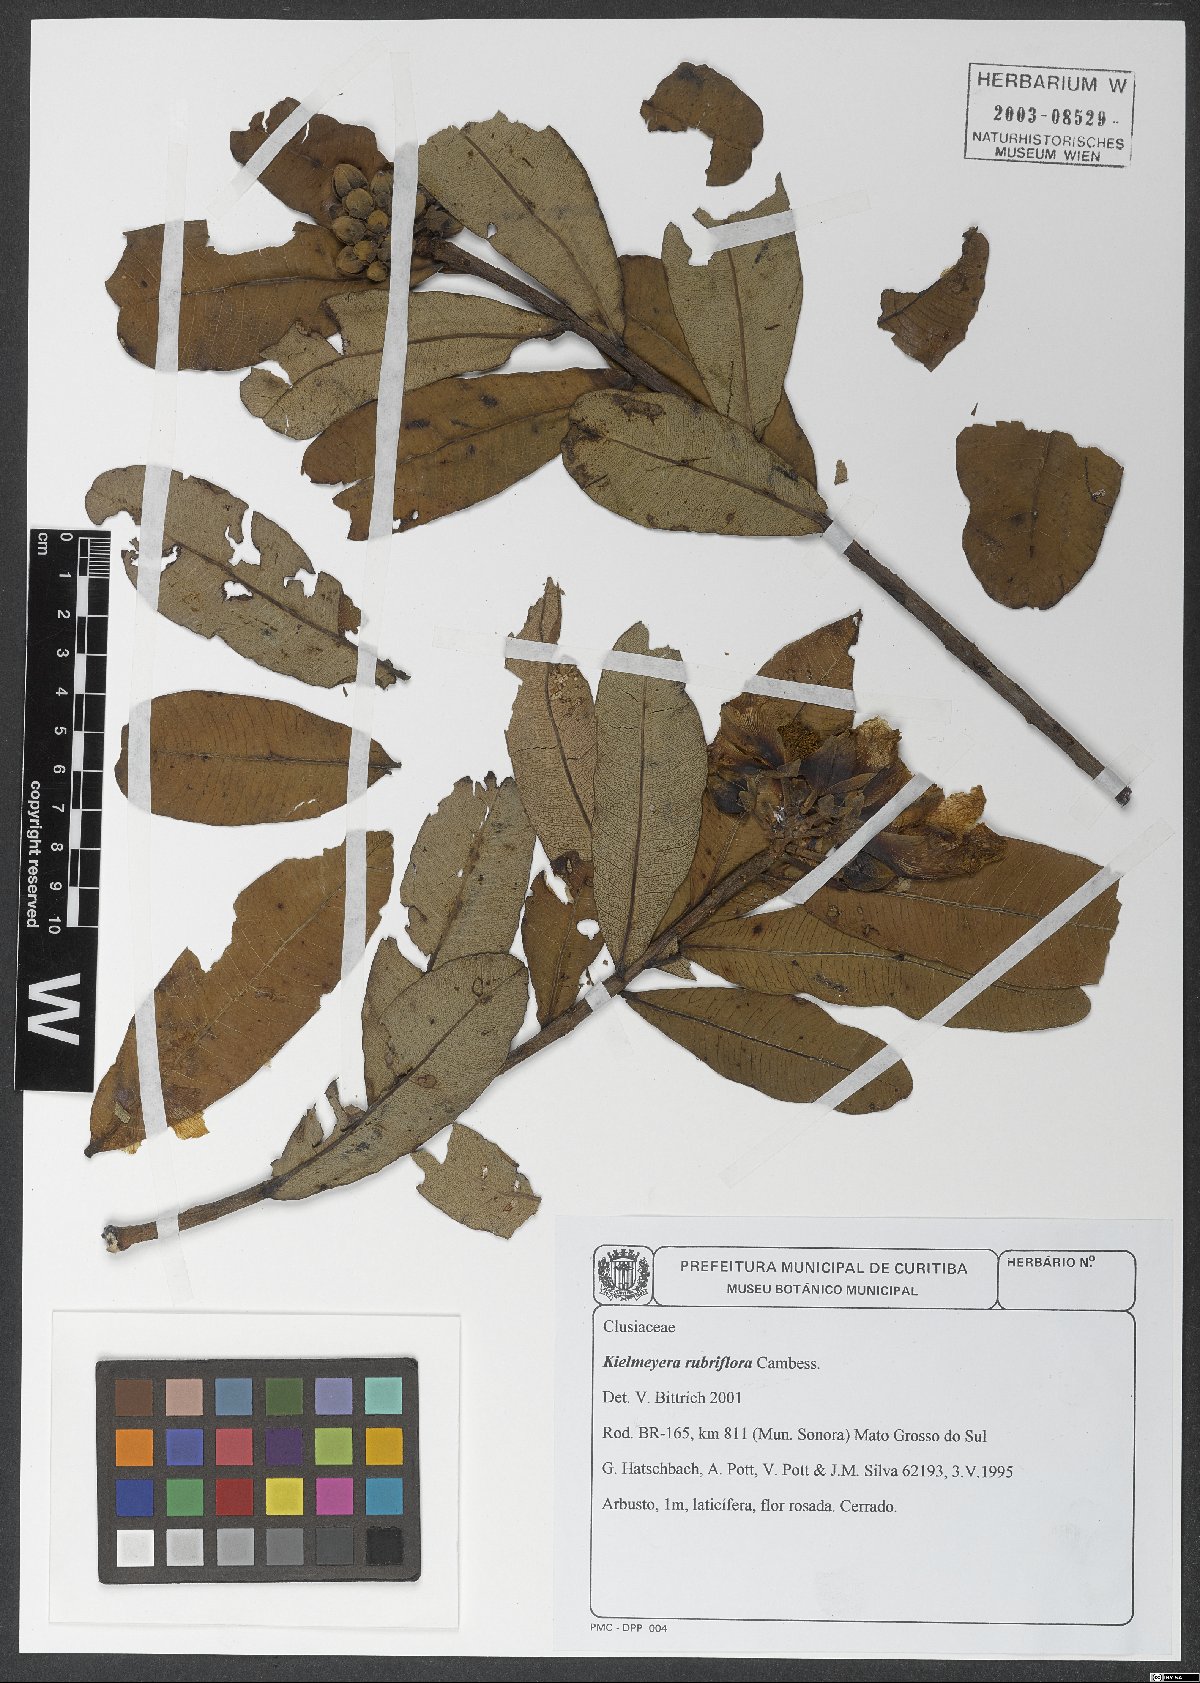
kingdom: Plantae
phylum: Tracheophyta
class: Magnoliopsida
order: Malpighiales
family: Calophyllaceae
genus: Kielmeyera
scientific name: Kielmeyera rubriflora
